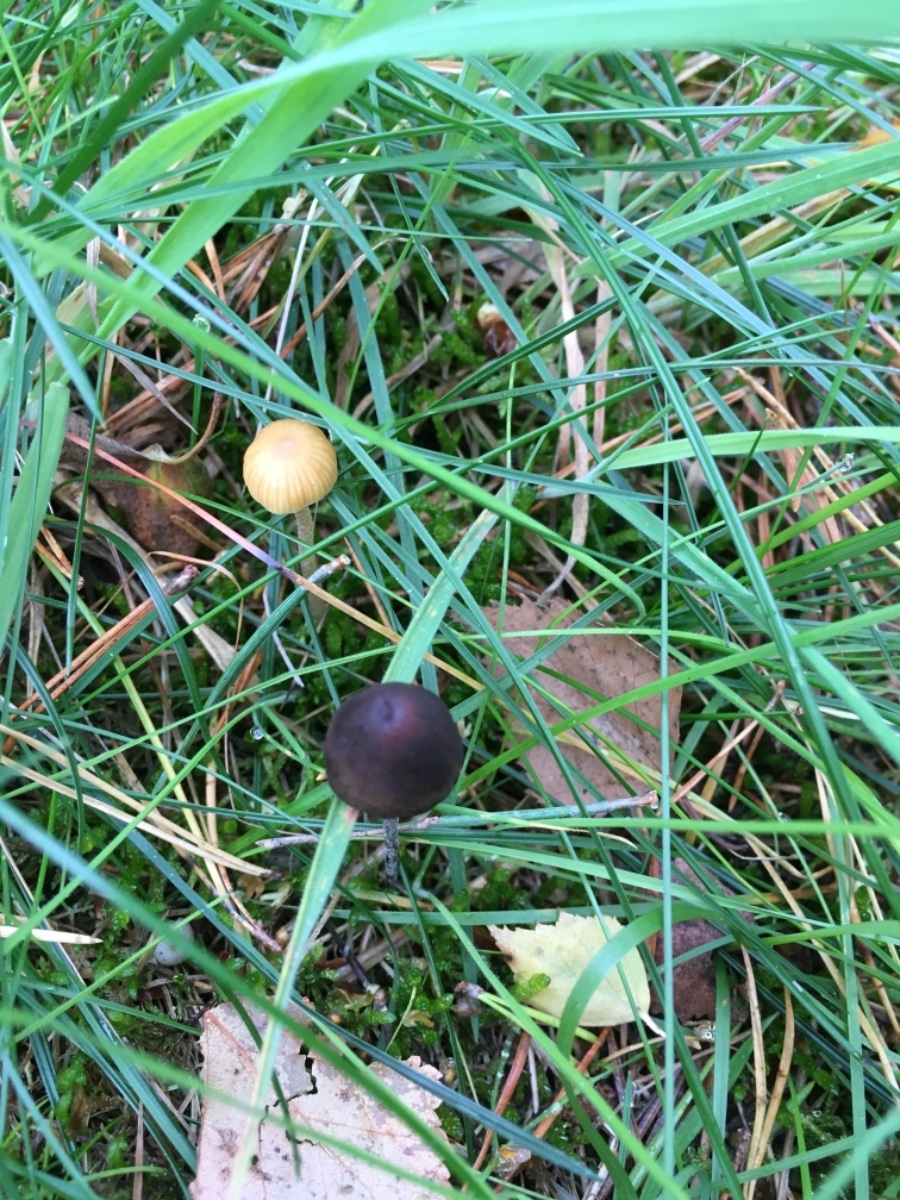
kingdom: Fungi
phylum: Basidiomycota
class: Agaricomycetes
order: Agaricales
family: Hymenogastraceae
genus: Galerina
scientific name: Galerina
